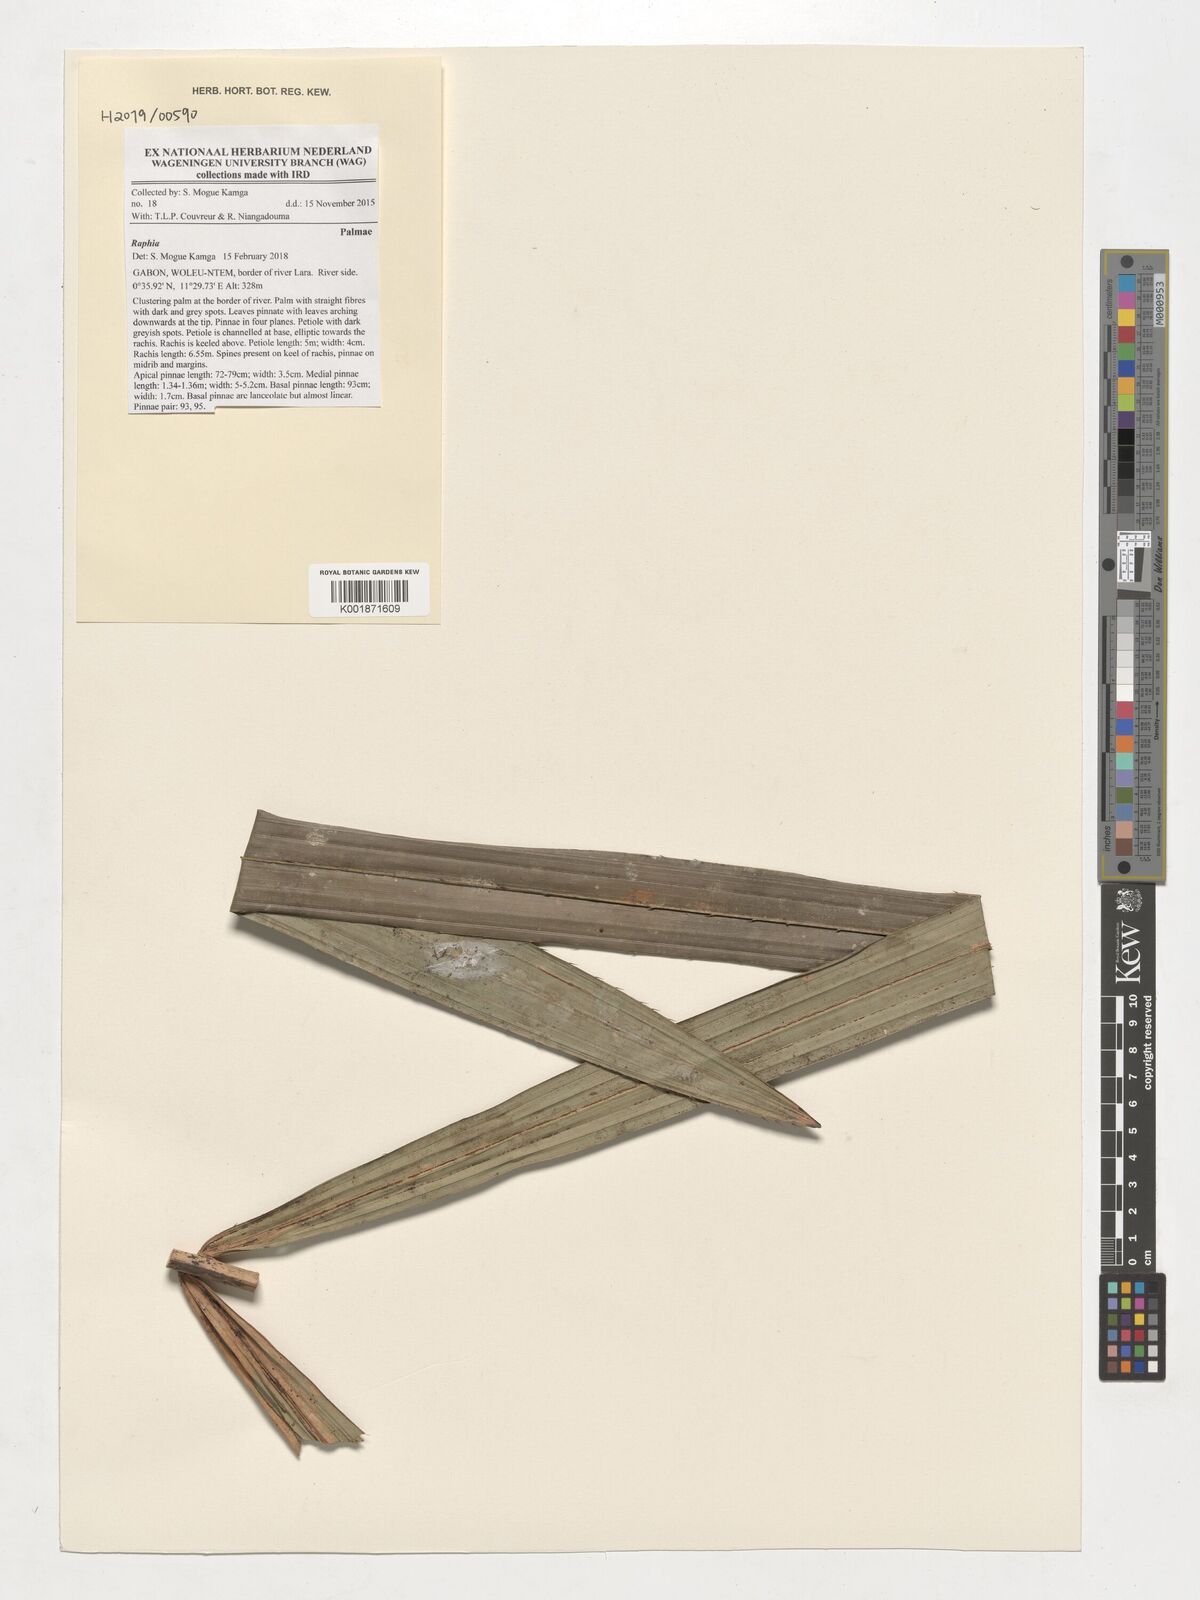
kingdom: Plantae
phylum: Tracheophyta
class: Liliopsida
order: Arecales
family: Arecaceae
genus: Raphia
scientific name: Raphia
